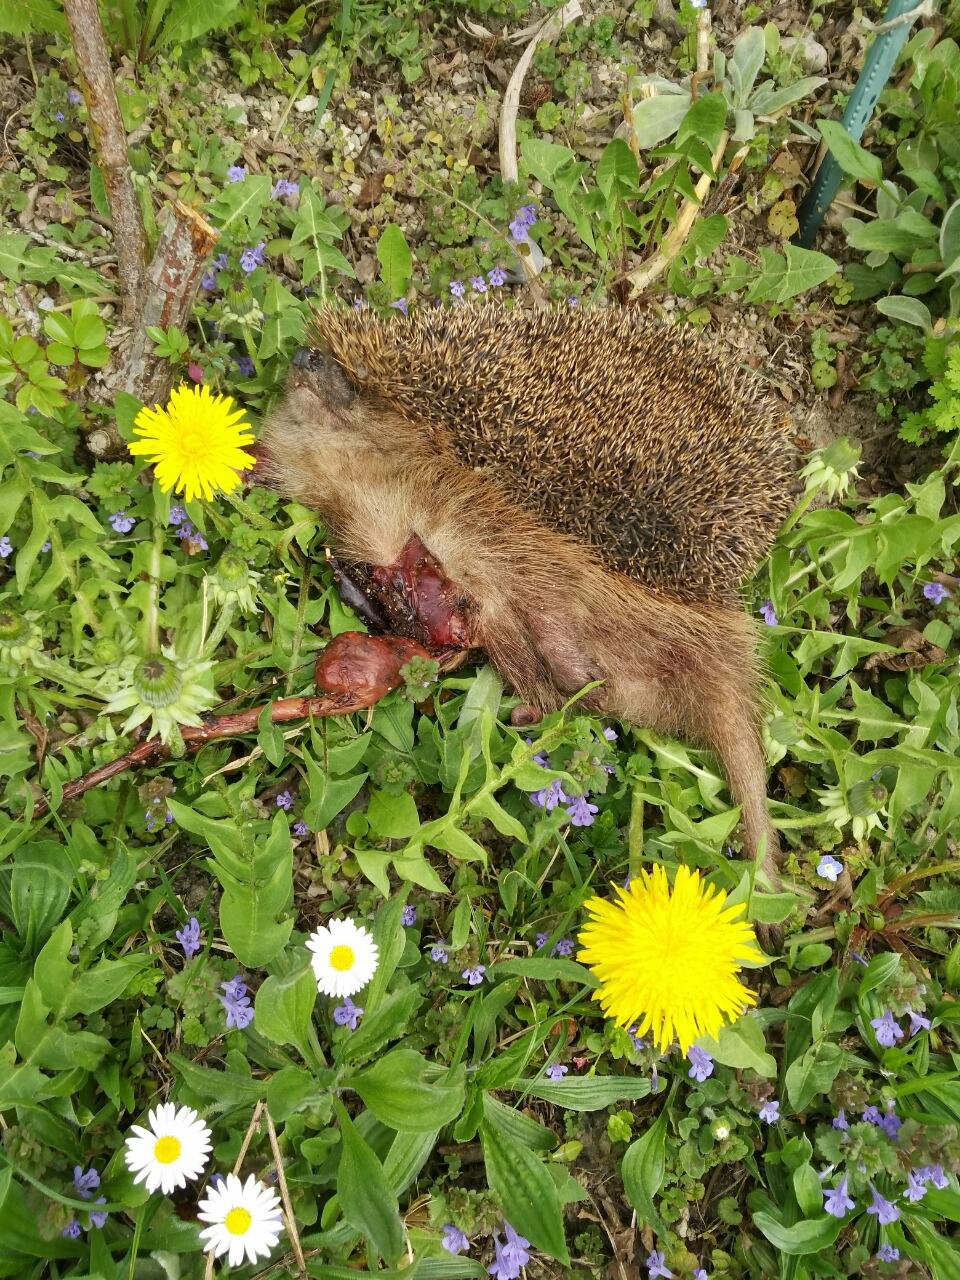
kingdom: Animalia
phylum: Chordata
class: Mammalia
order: Erinaceomorpha
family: Erinaceidae
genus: Erinaceus
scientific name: Erinaceus
